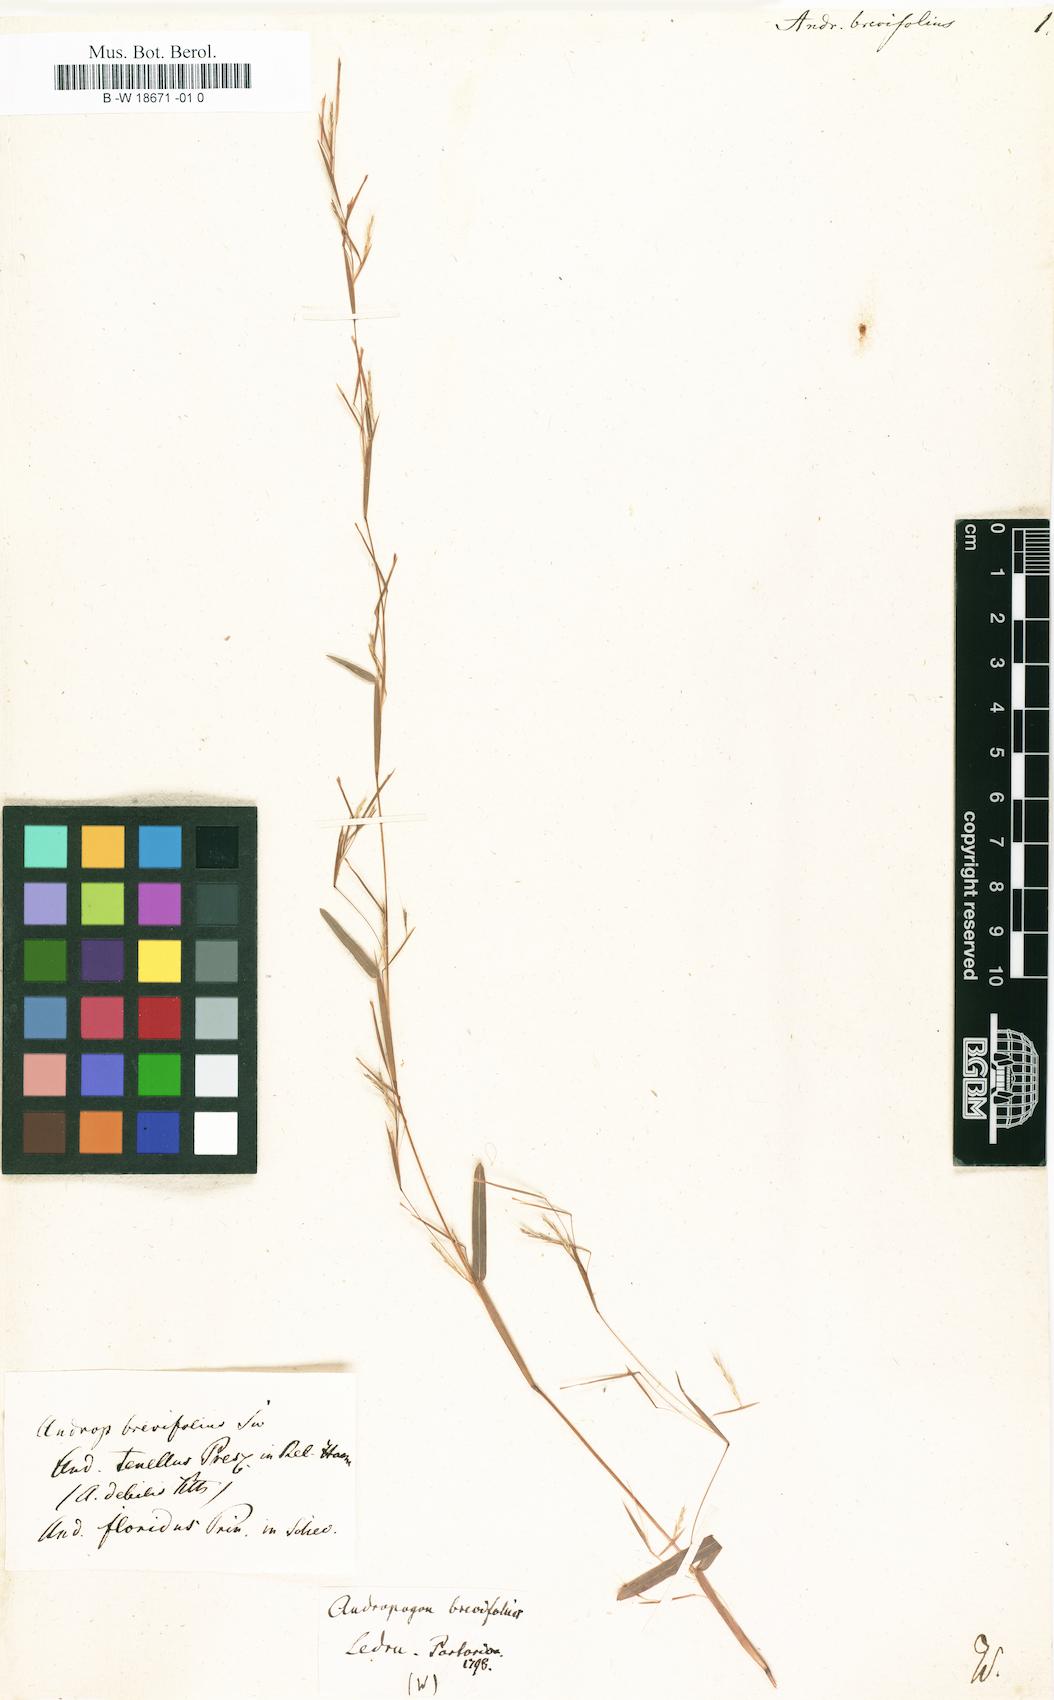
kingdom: Plantae
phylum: Tracheophyta
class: Liliopsida
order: Poales
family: Poaceae
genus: Schizachyrium
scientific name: Schizachyrium brevifolium
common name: Serillo dulce
